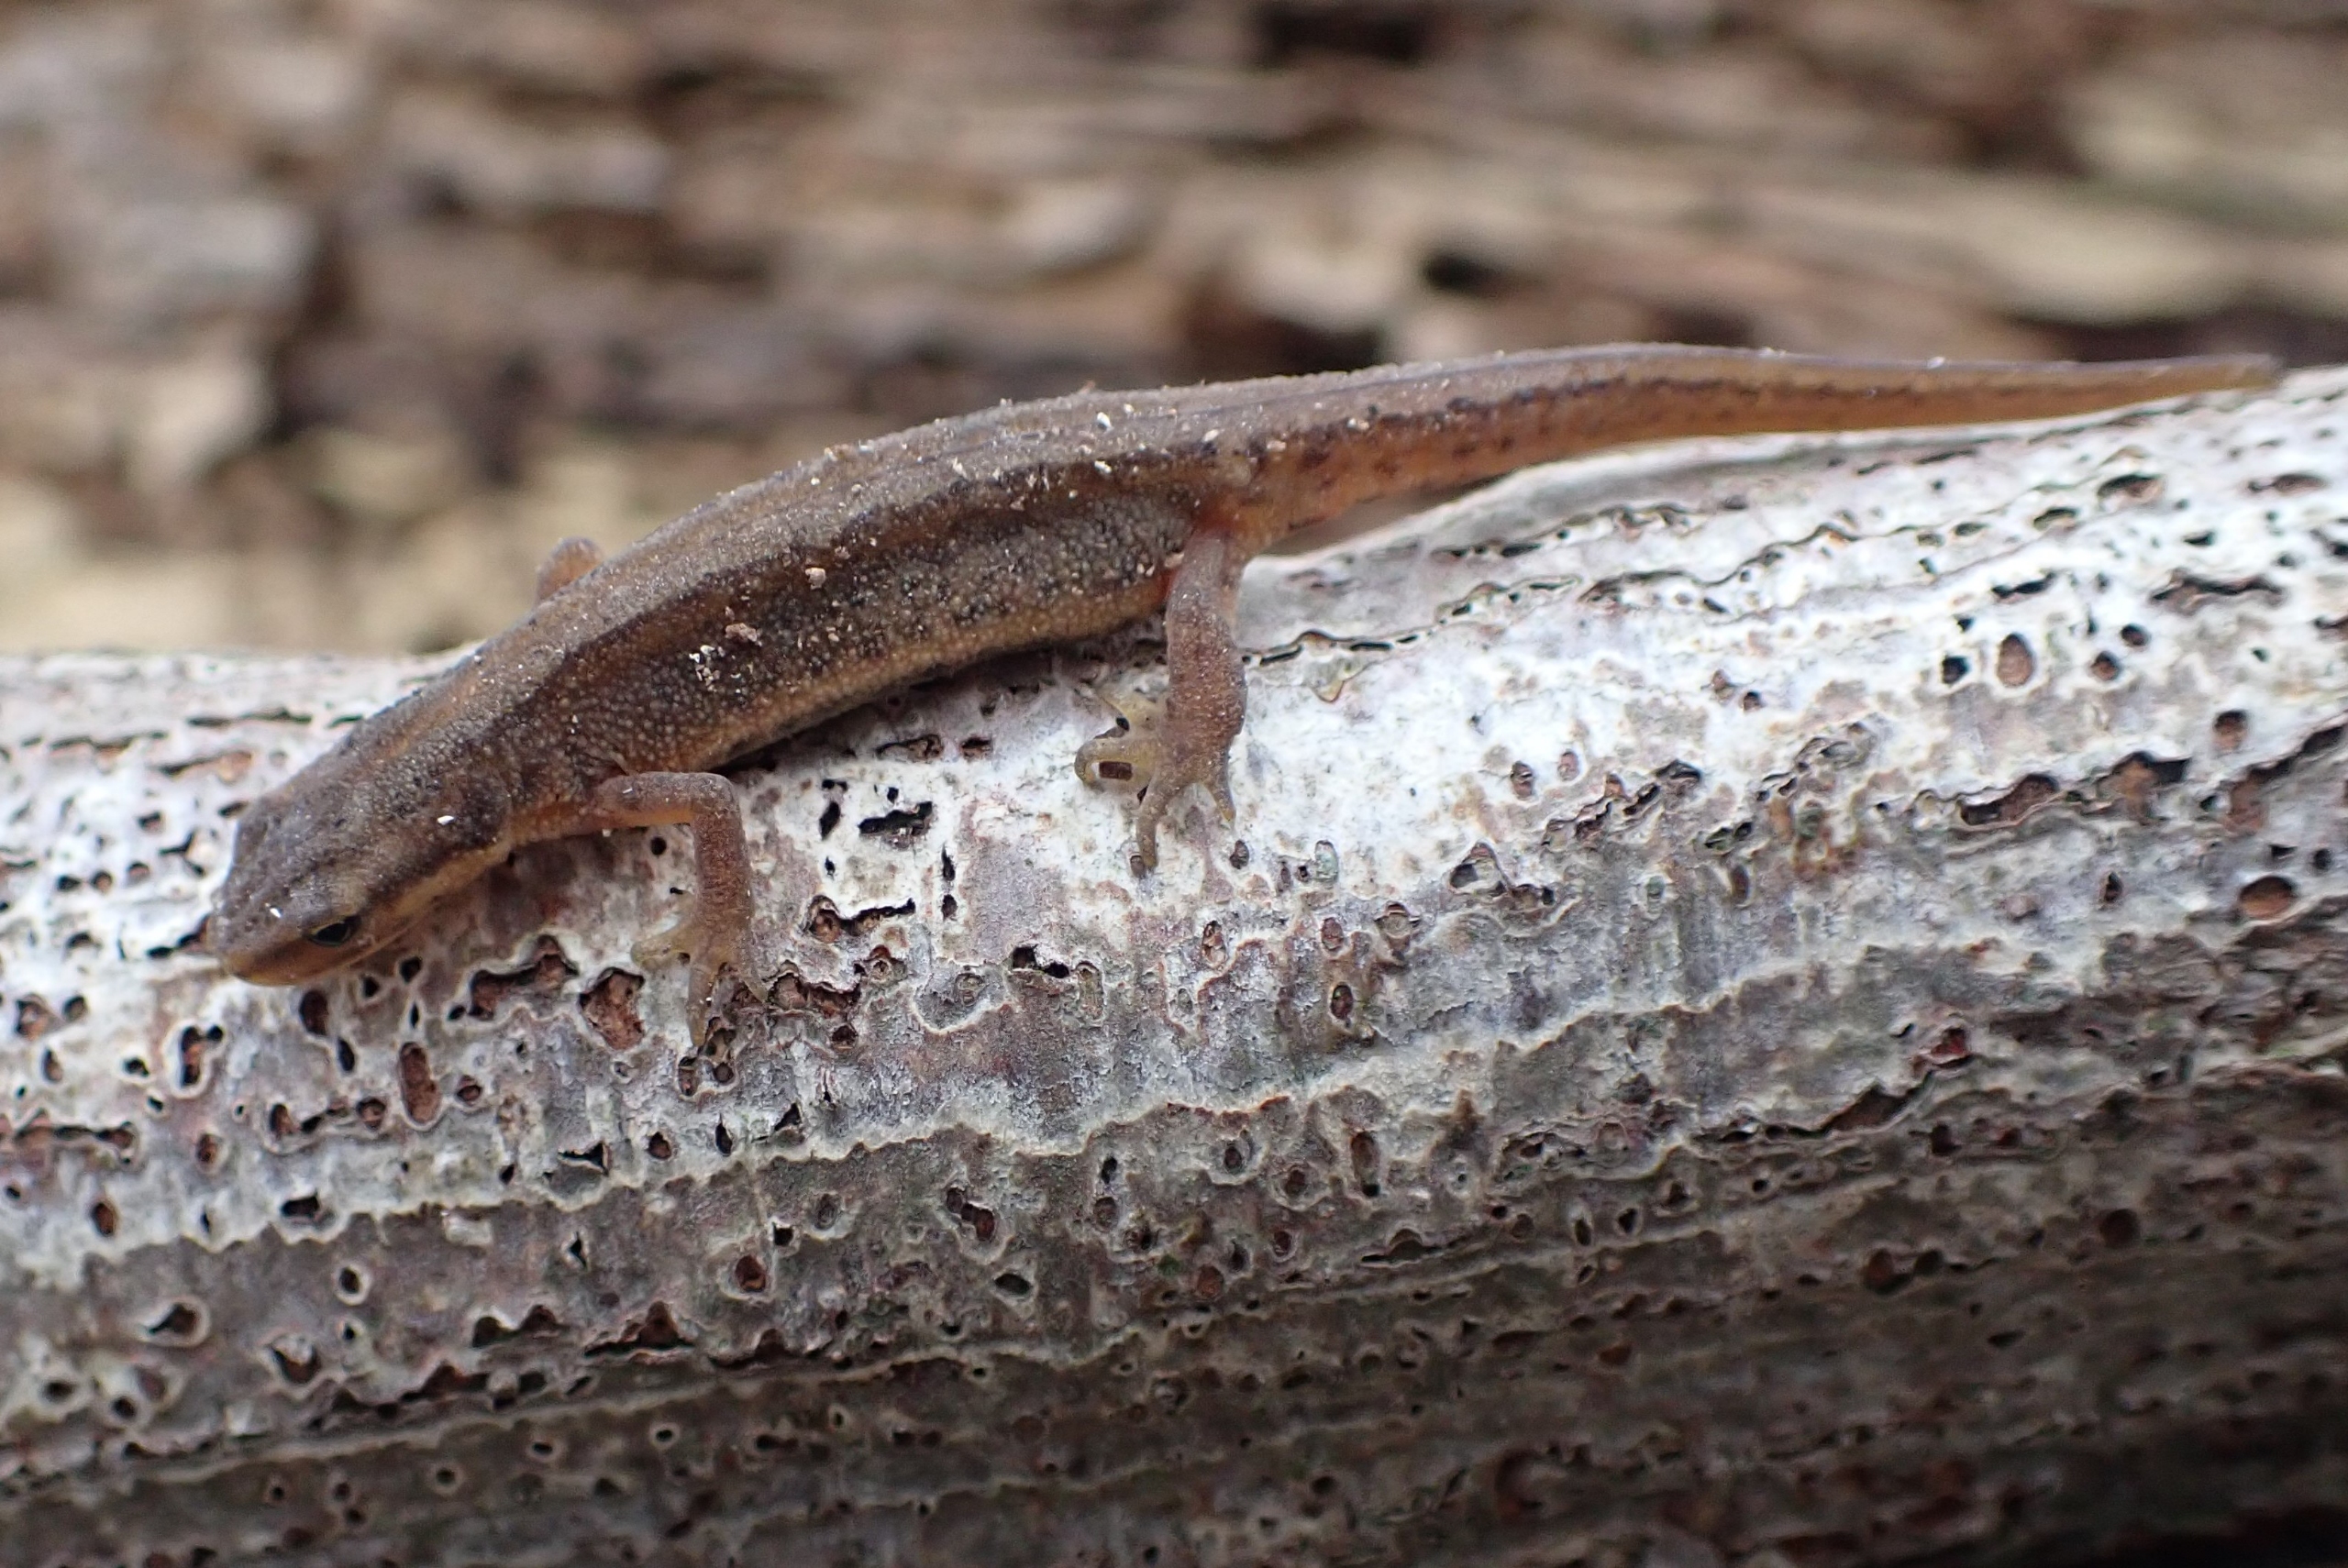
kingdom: Animalia
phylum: Chordata
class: Amphibia
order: Caudata
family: Salamandridae
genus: Lissotriton
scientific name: Lissotriton vulgaris
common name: Lille vandsalamander
